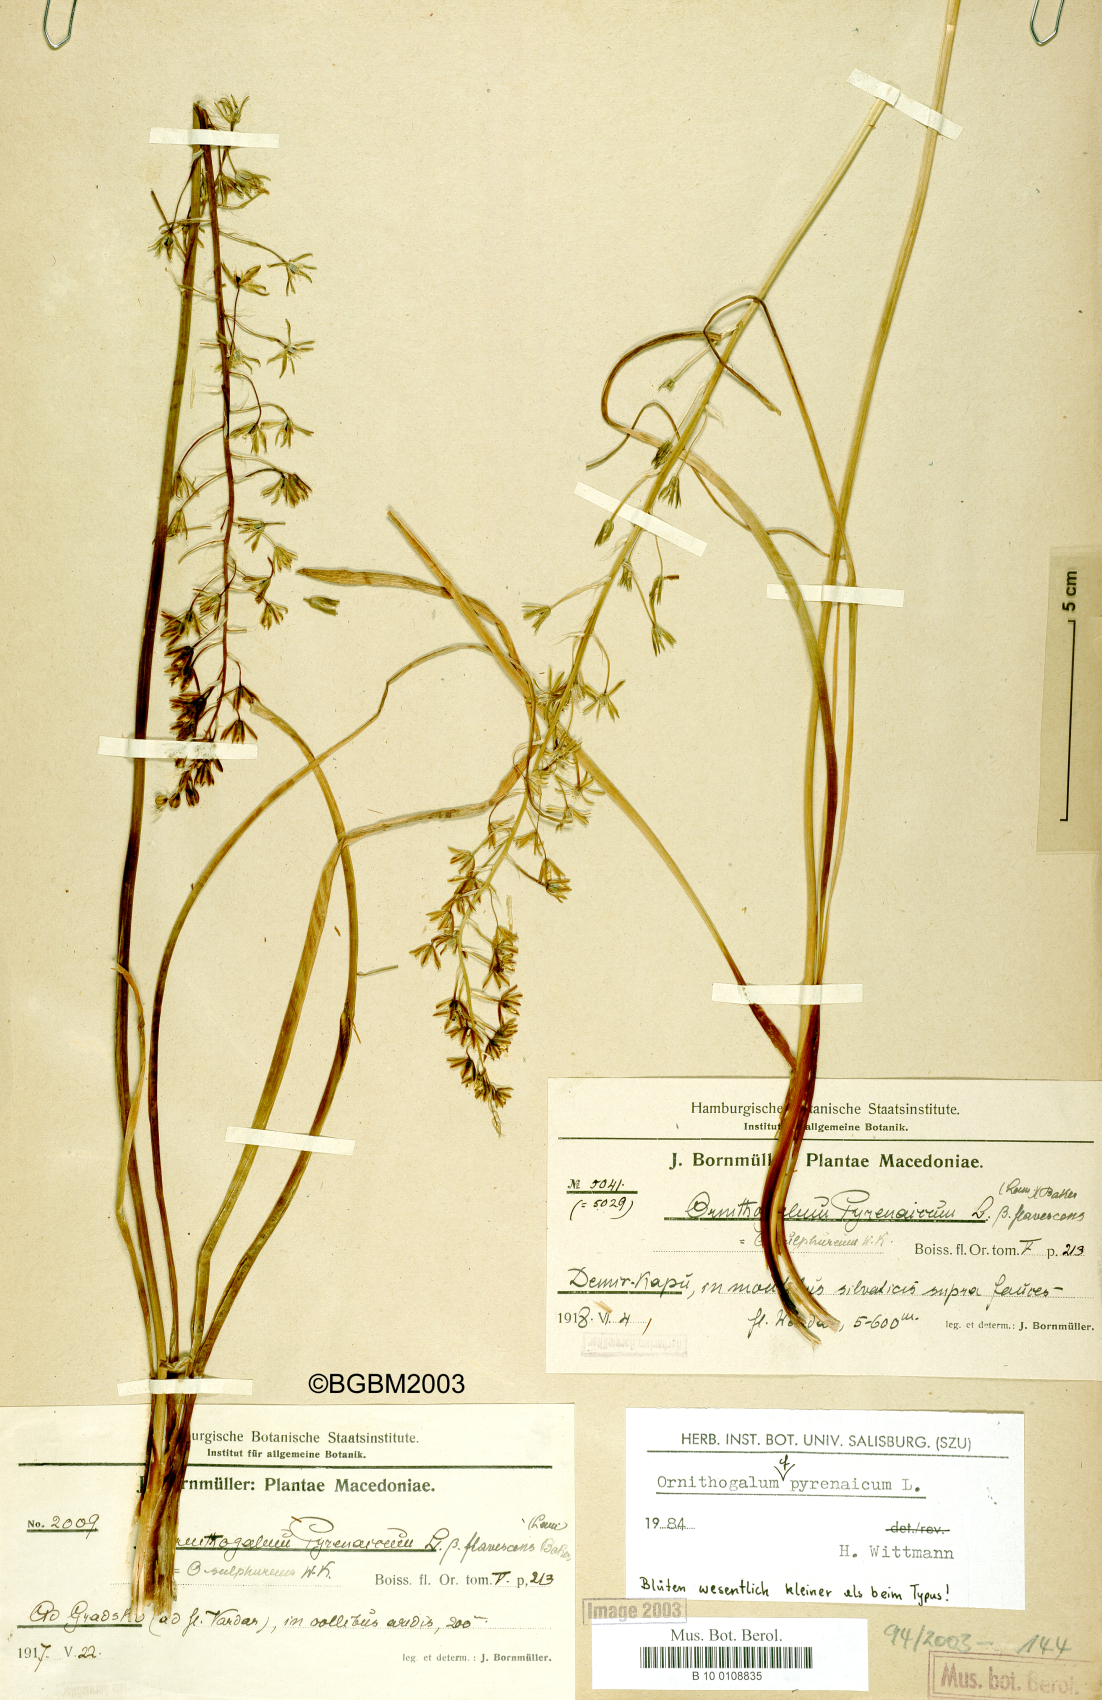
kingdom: Plantae
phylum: Tracheophyta
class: Liliopsida
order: Asparagales
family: Asparagaceae
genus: Ornithogalum
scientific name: Ornithogalum pyrenaicum
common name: Spiked star-of-bethlehem
